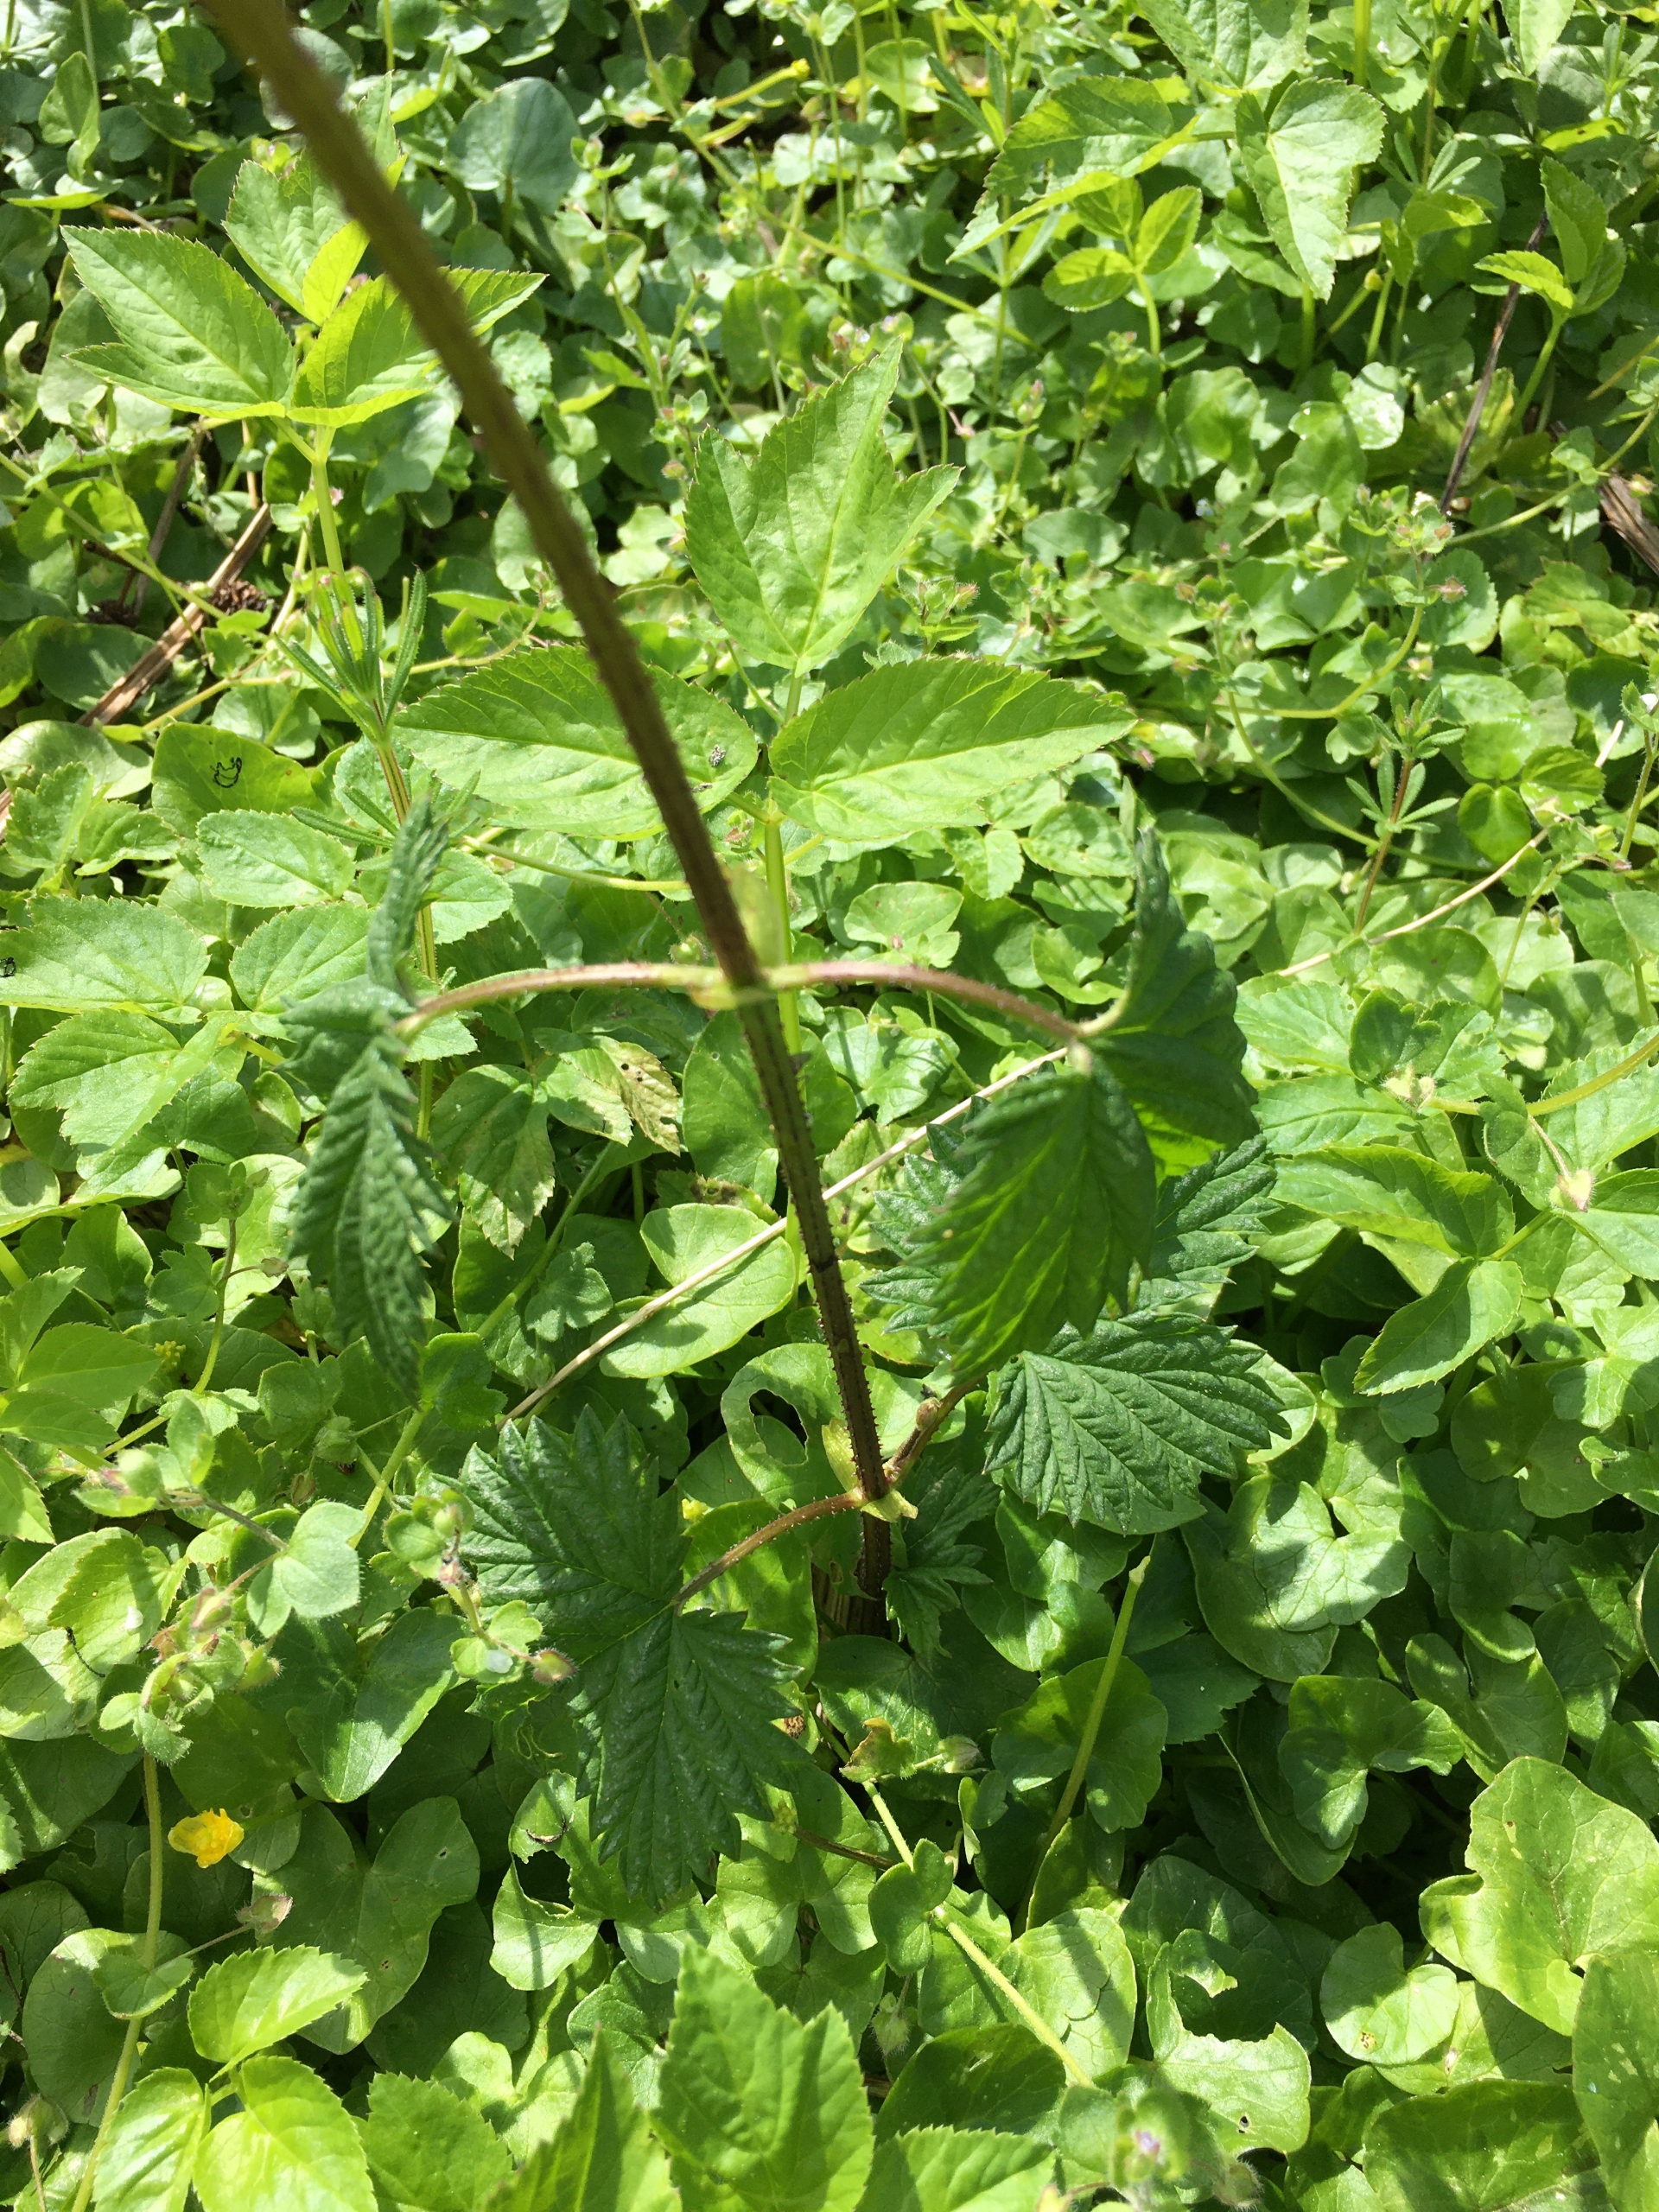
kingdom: Plantae
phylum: Tracheophyta
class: Magnoliopsida
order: Rosales
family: Cannabaceae
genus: Humulus
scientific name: Humulus lupulus
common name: Humle
